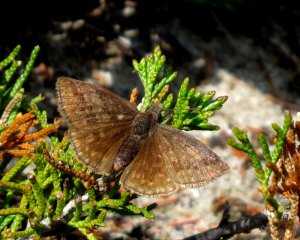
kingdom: Animalia
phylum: Arthropoda
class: Insecta
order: Lepidoptera
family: Hesperiidae
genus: Erynnis
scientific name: Erynnis icelus
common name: Dreamy Duskywing
